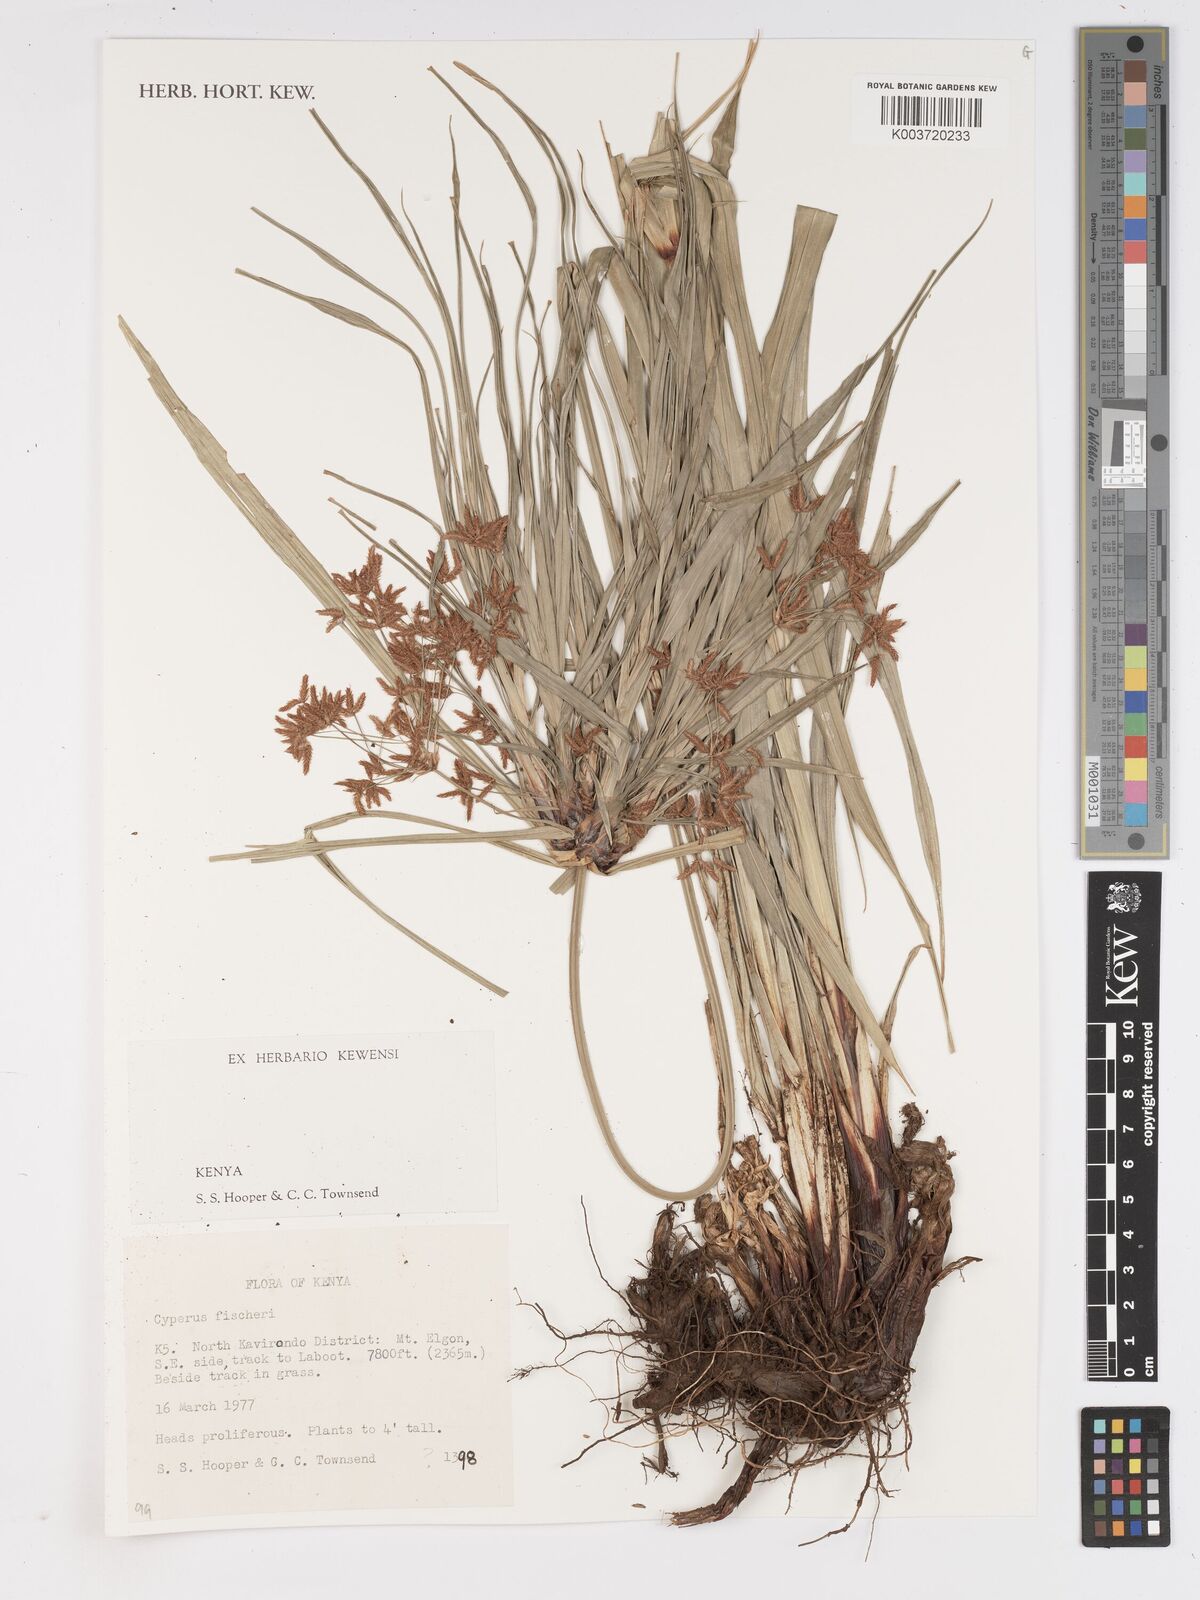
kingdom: Plantae
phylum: Tracheophyta
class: Liliopsida
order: Poales
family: Cyperaceae
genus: Cyperus
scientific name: Cyperus
